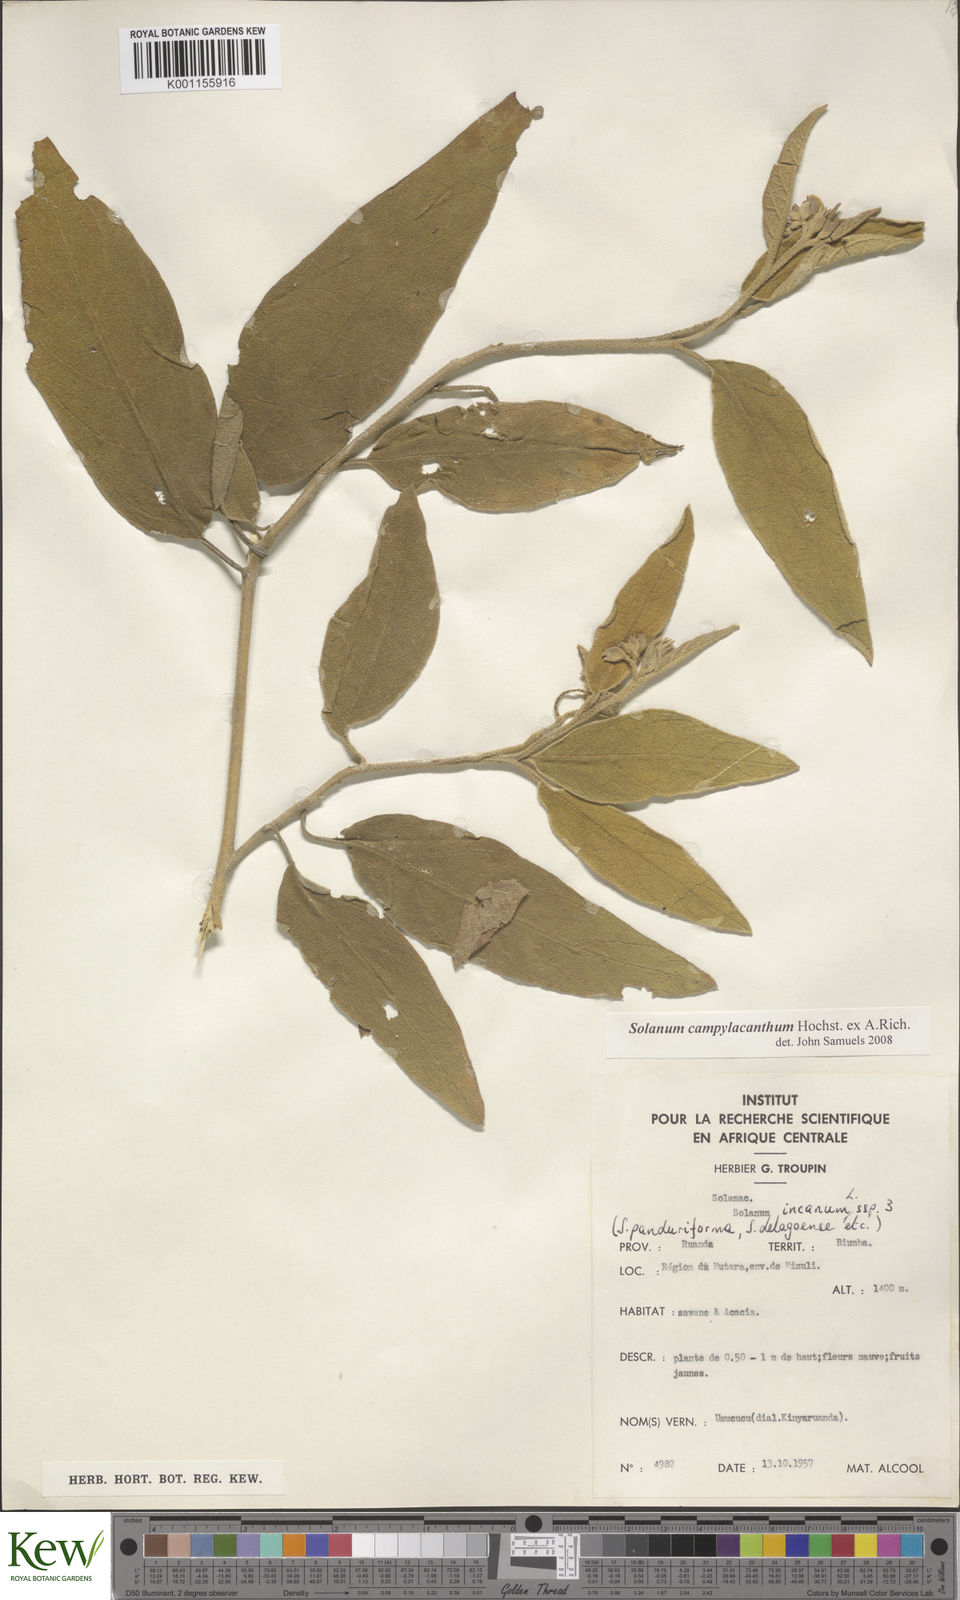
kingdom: Plantae
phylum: Tracheophyta
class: Magnoliopsida
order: Solanales
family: Solanaceae
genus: Solanum
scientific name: Solanum campylacanthum
